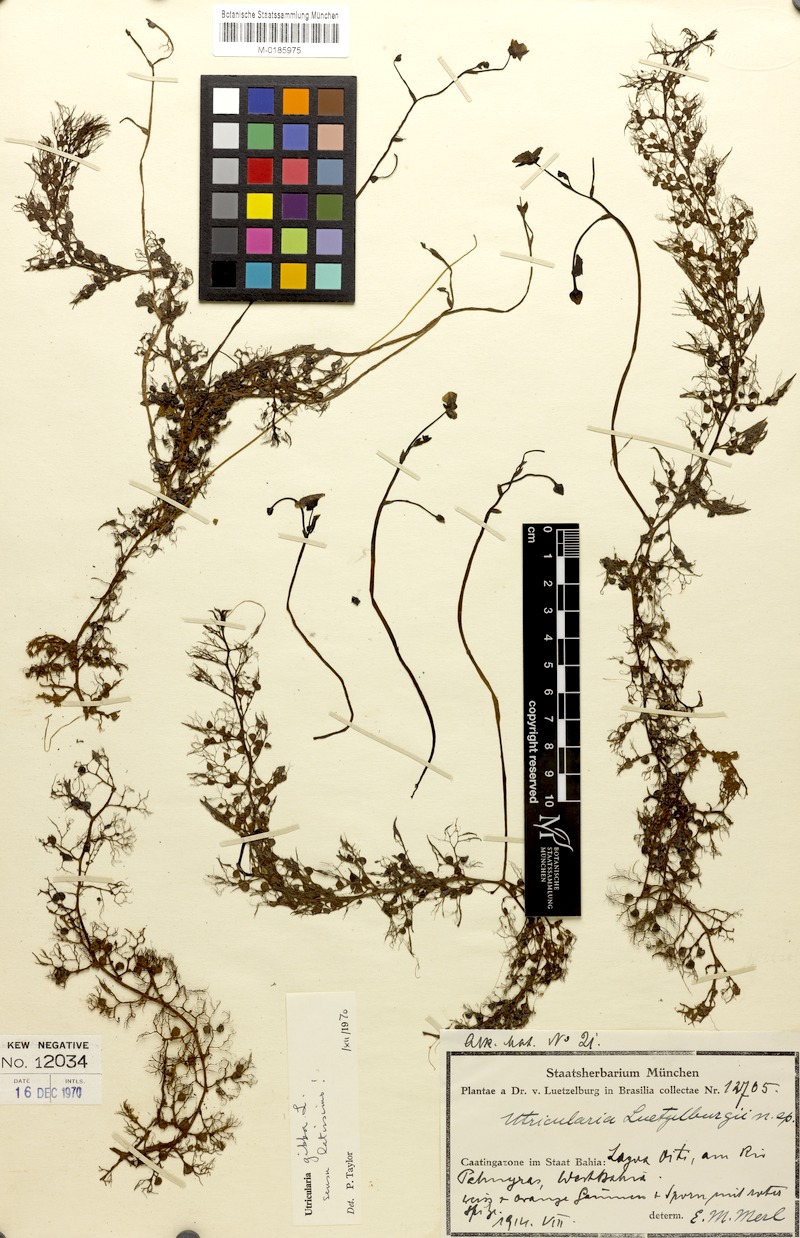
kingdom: Plantae
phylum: Tracheophyta
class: Magnoliopsida
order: Lamiales
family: Lentibulariaceae
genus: Utricularia
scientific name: Utricularia poconensis
